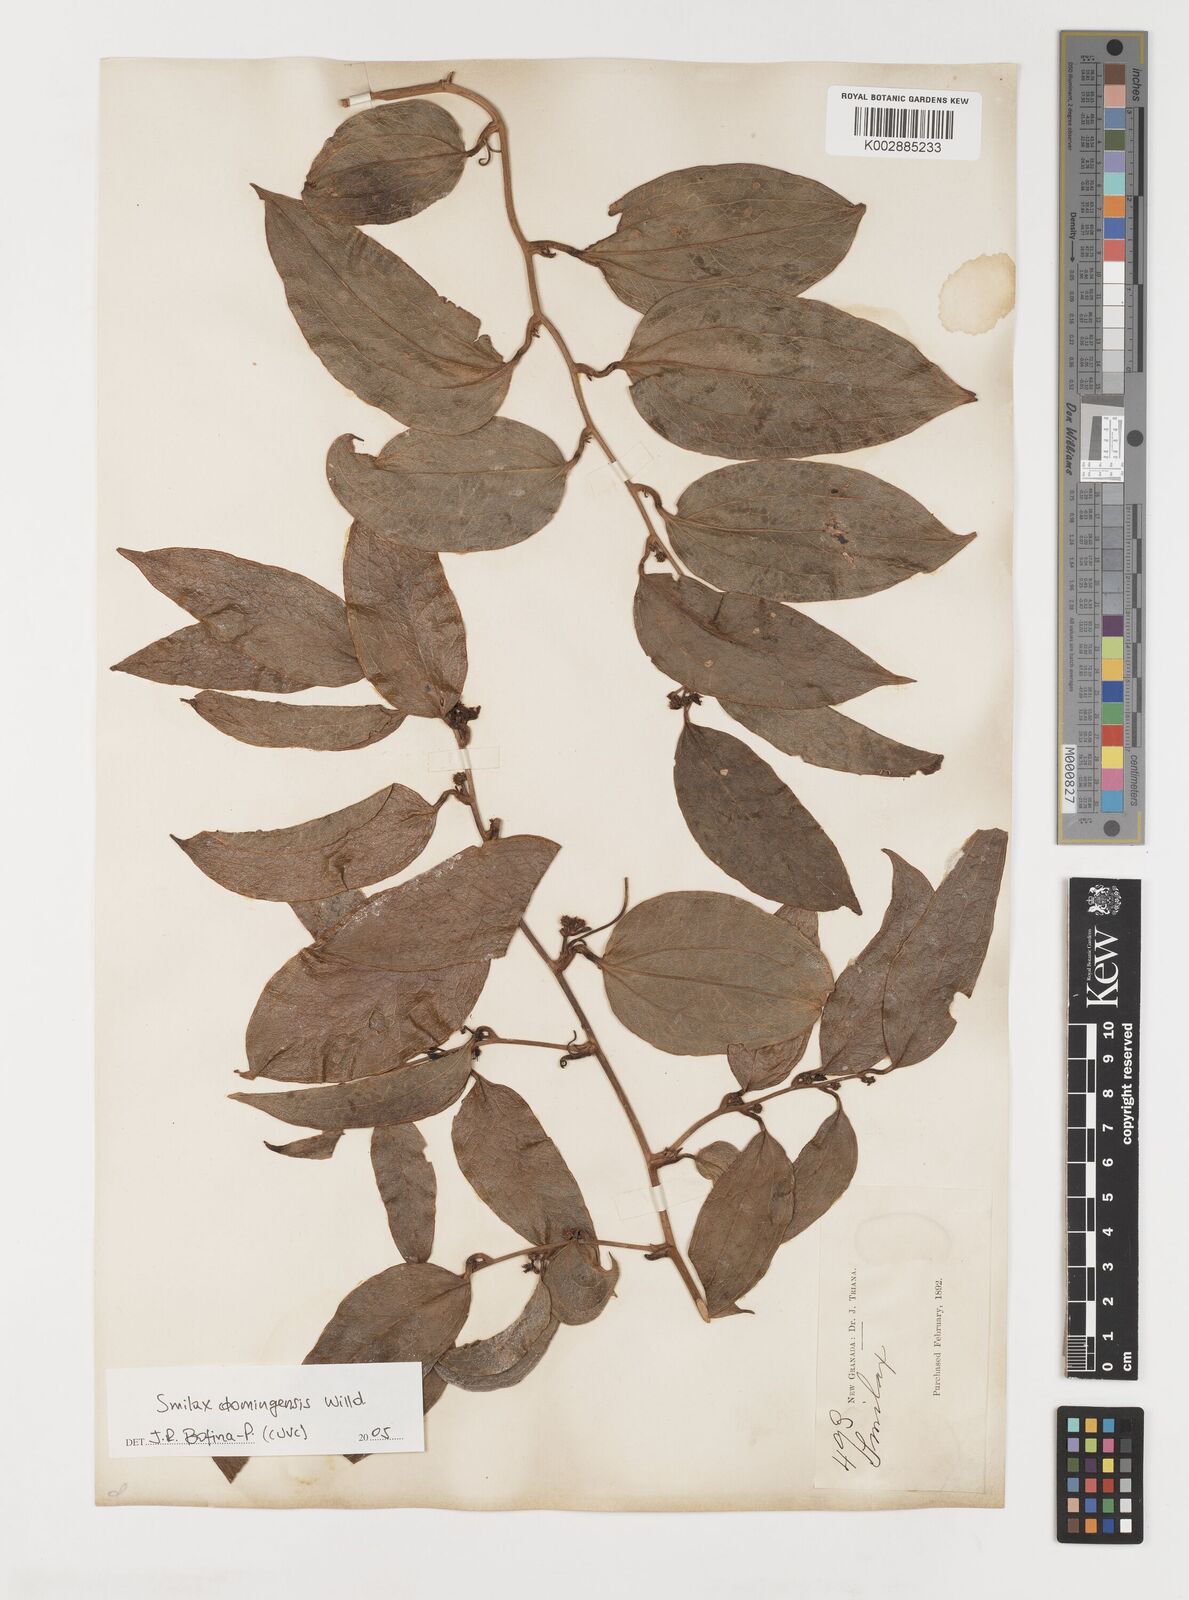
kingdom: Plantae
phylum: Tracheophyta
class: Liliopsida
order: Liliales
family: Smilacaceae
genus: Smilax
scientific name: Smilax domingensis
